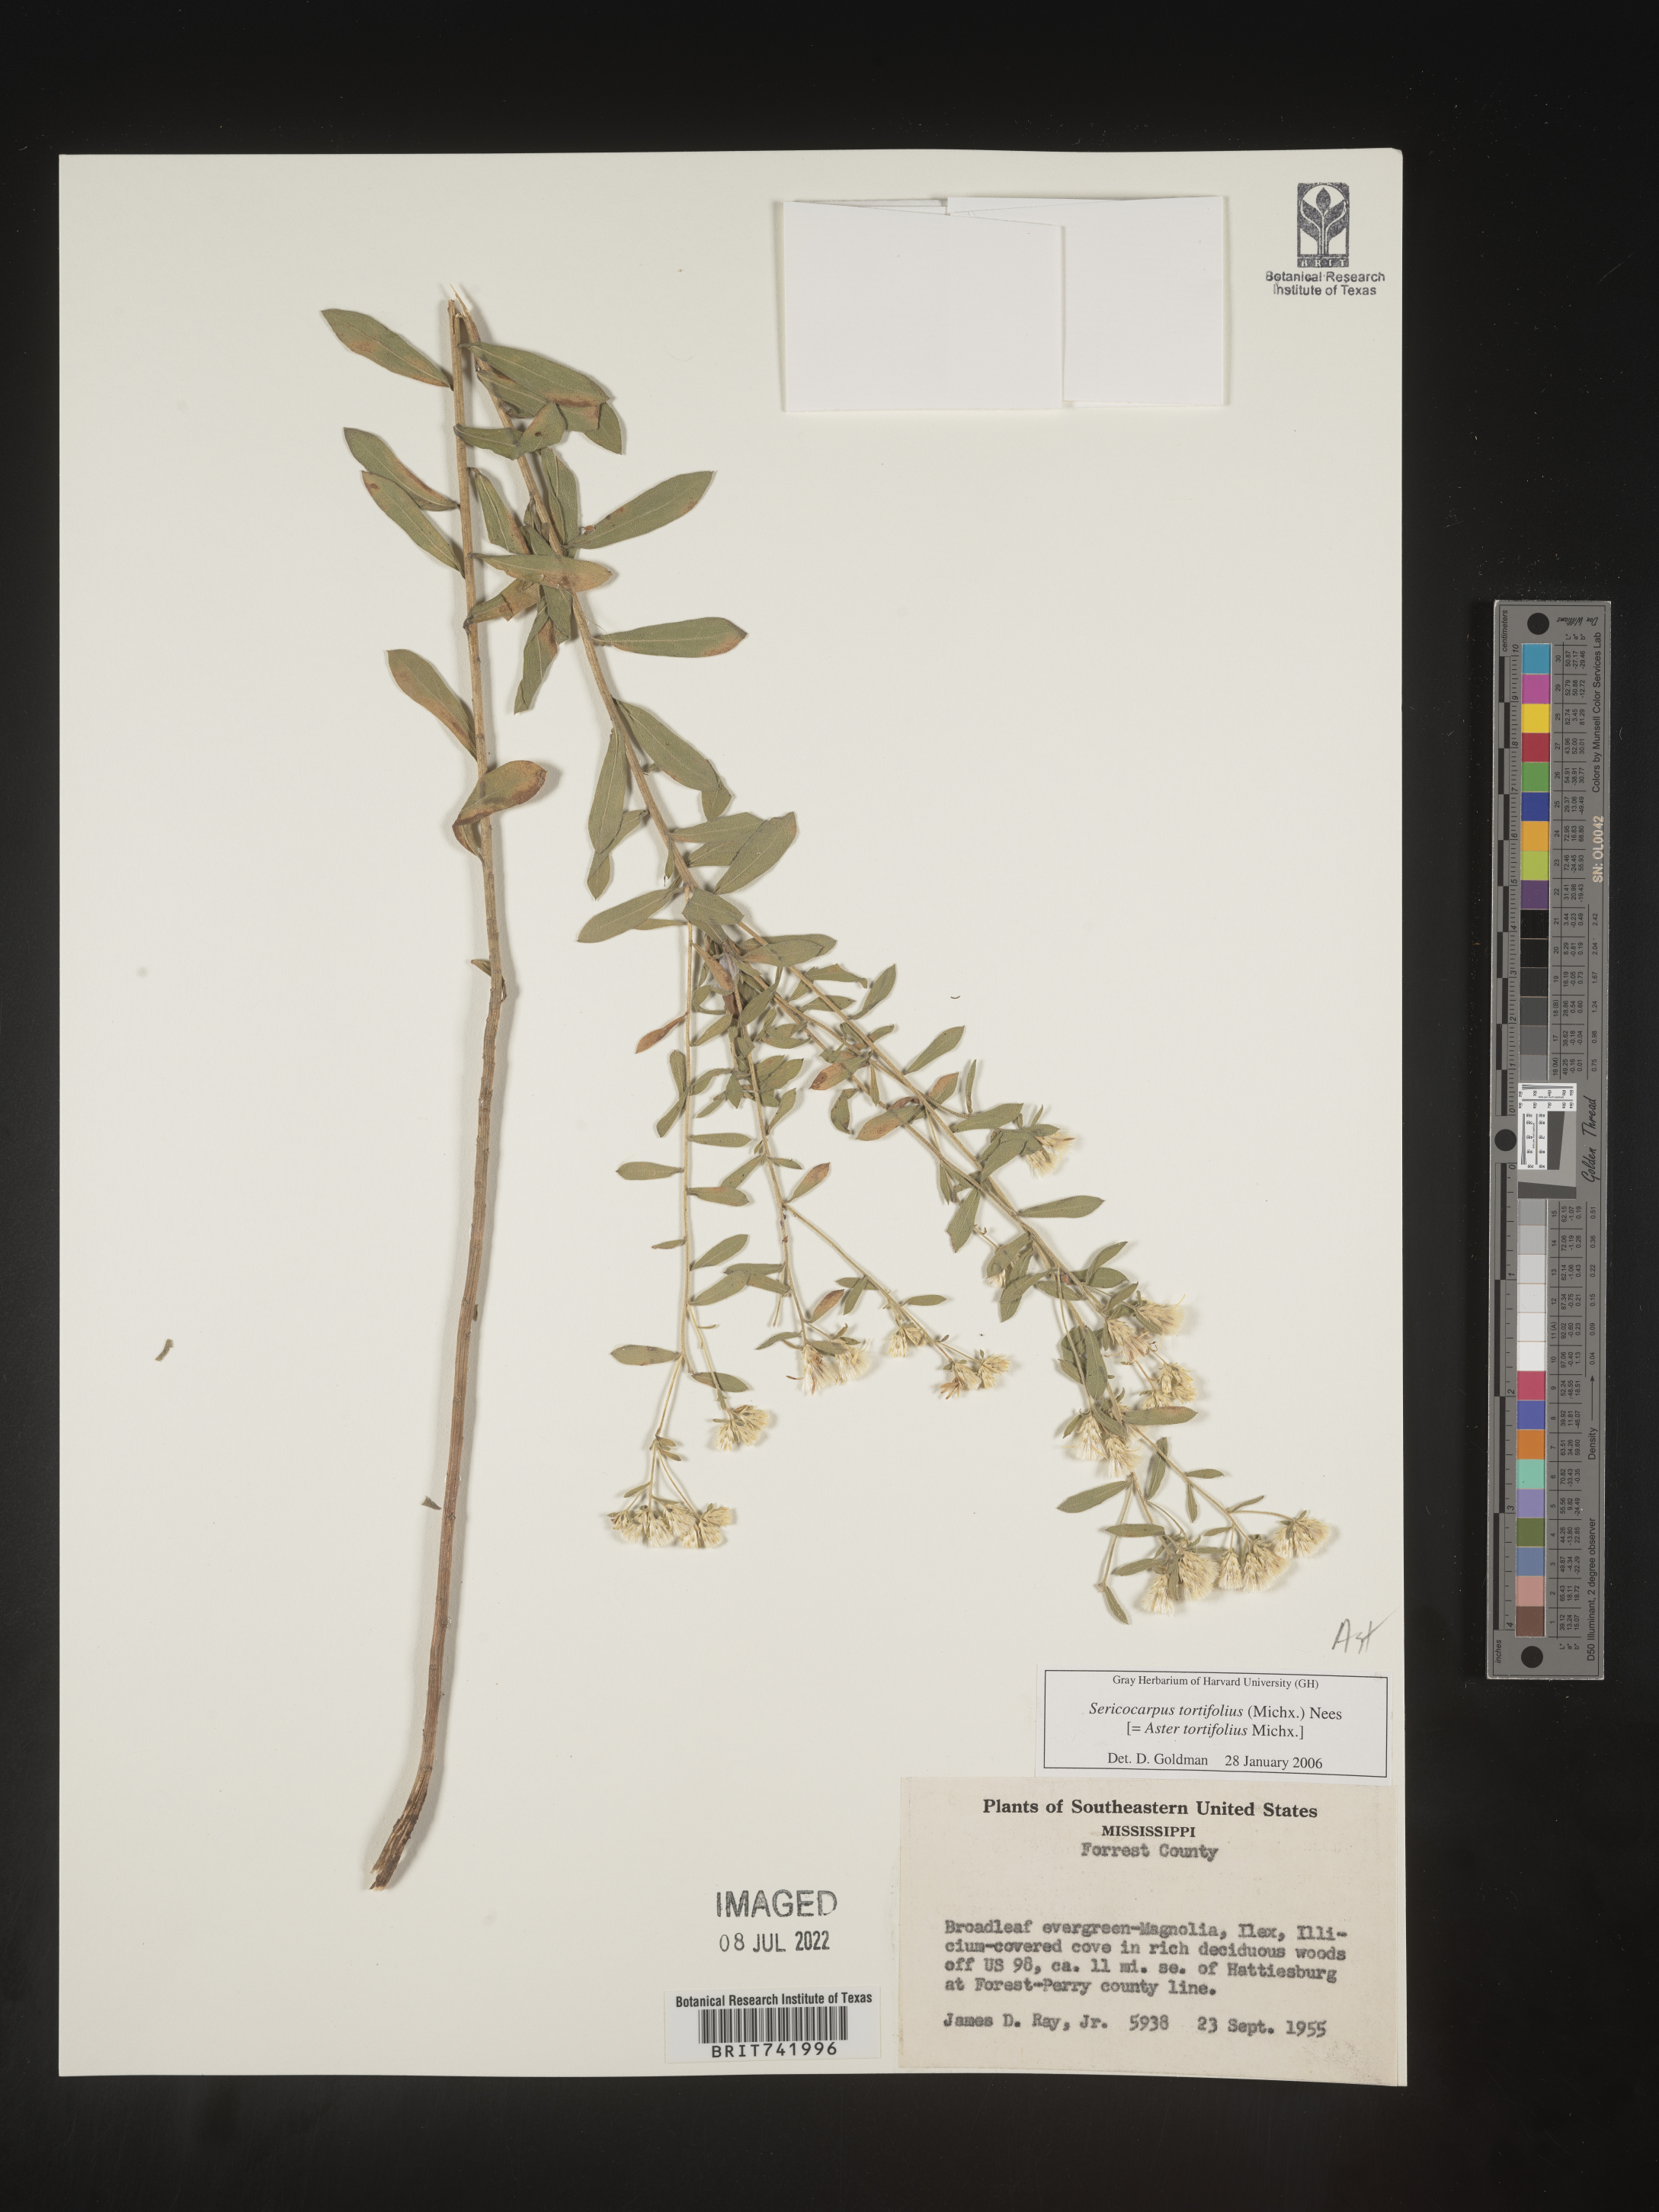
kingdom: Plantae
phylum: Tracheophyta
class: Magnoliopsida
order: Asterales
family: Asteraceae
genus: Sericocarpus
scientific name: Sericocarpus tortifolius
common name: Dixie aster
